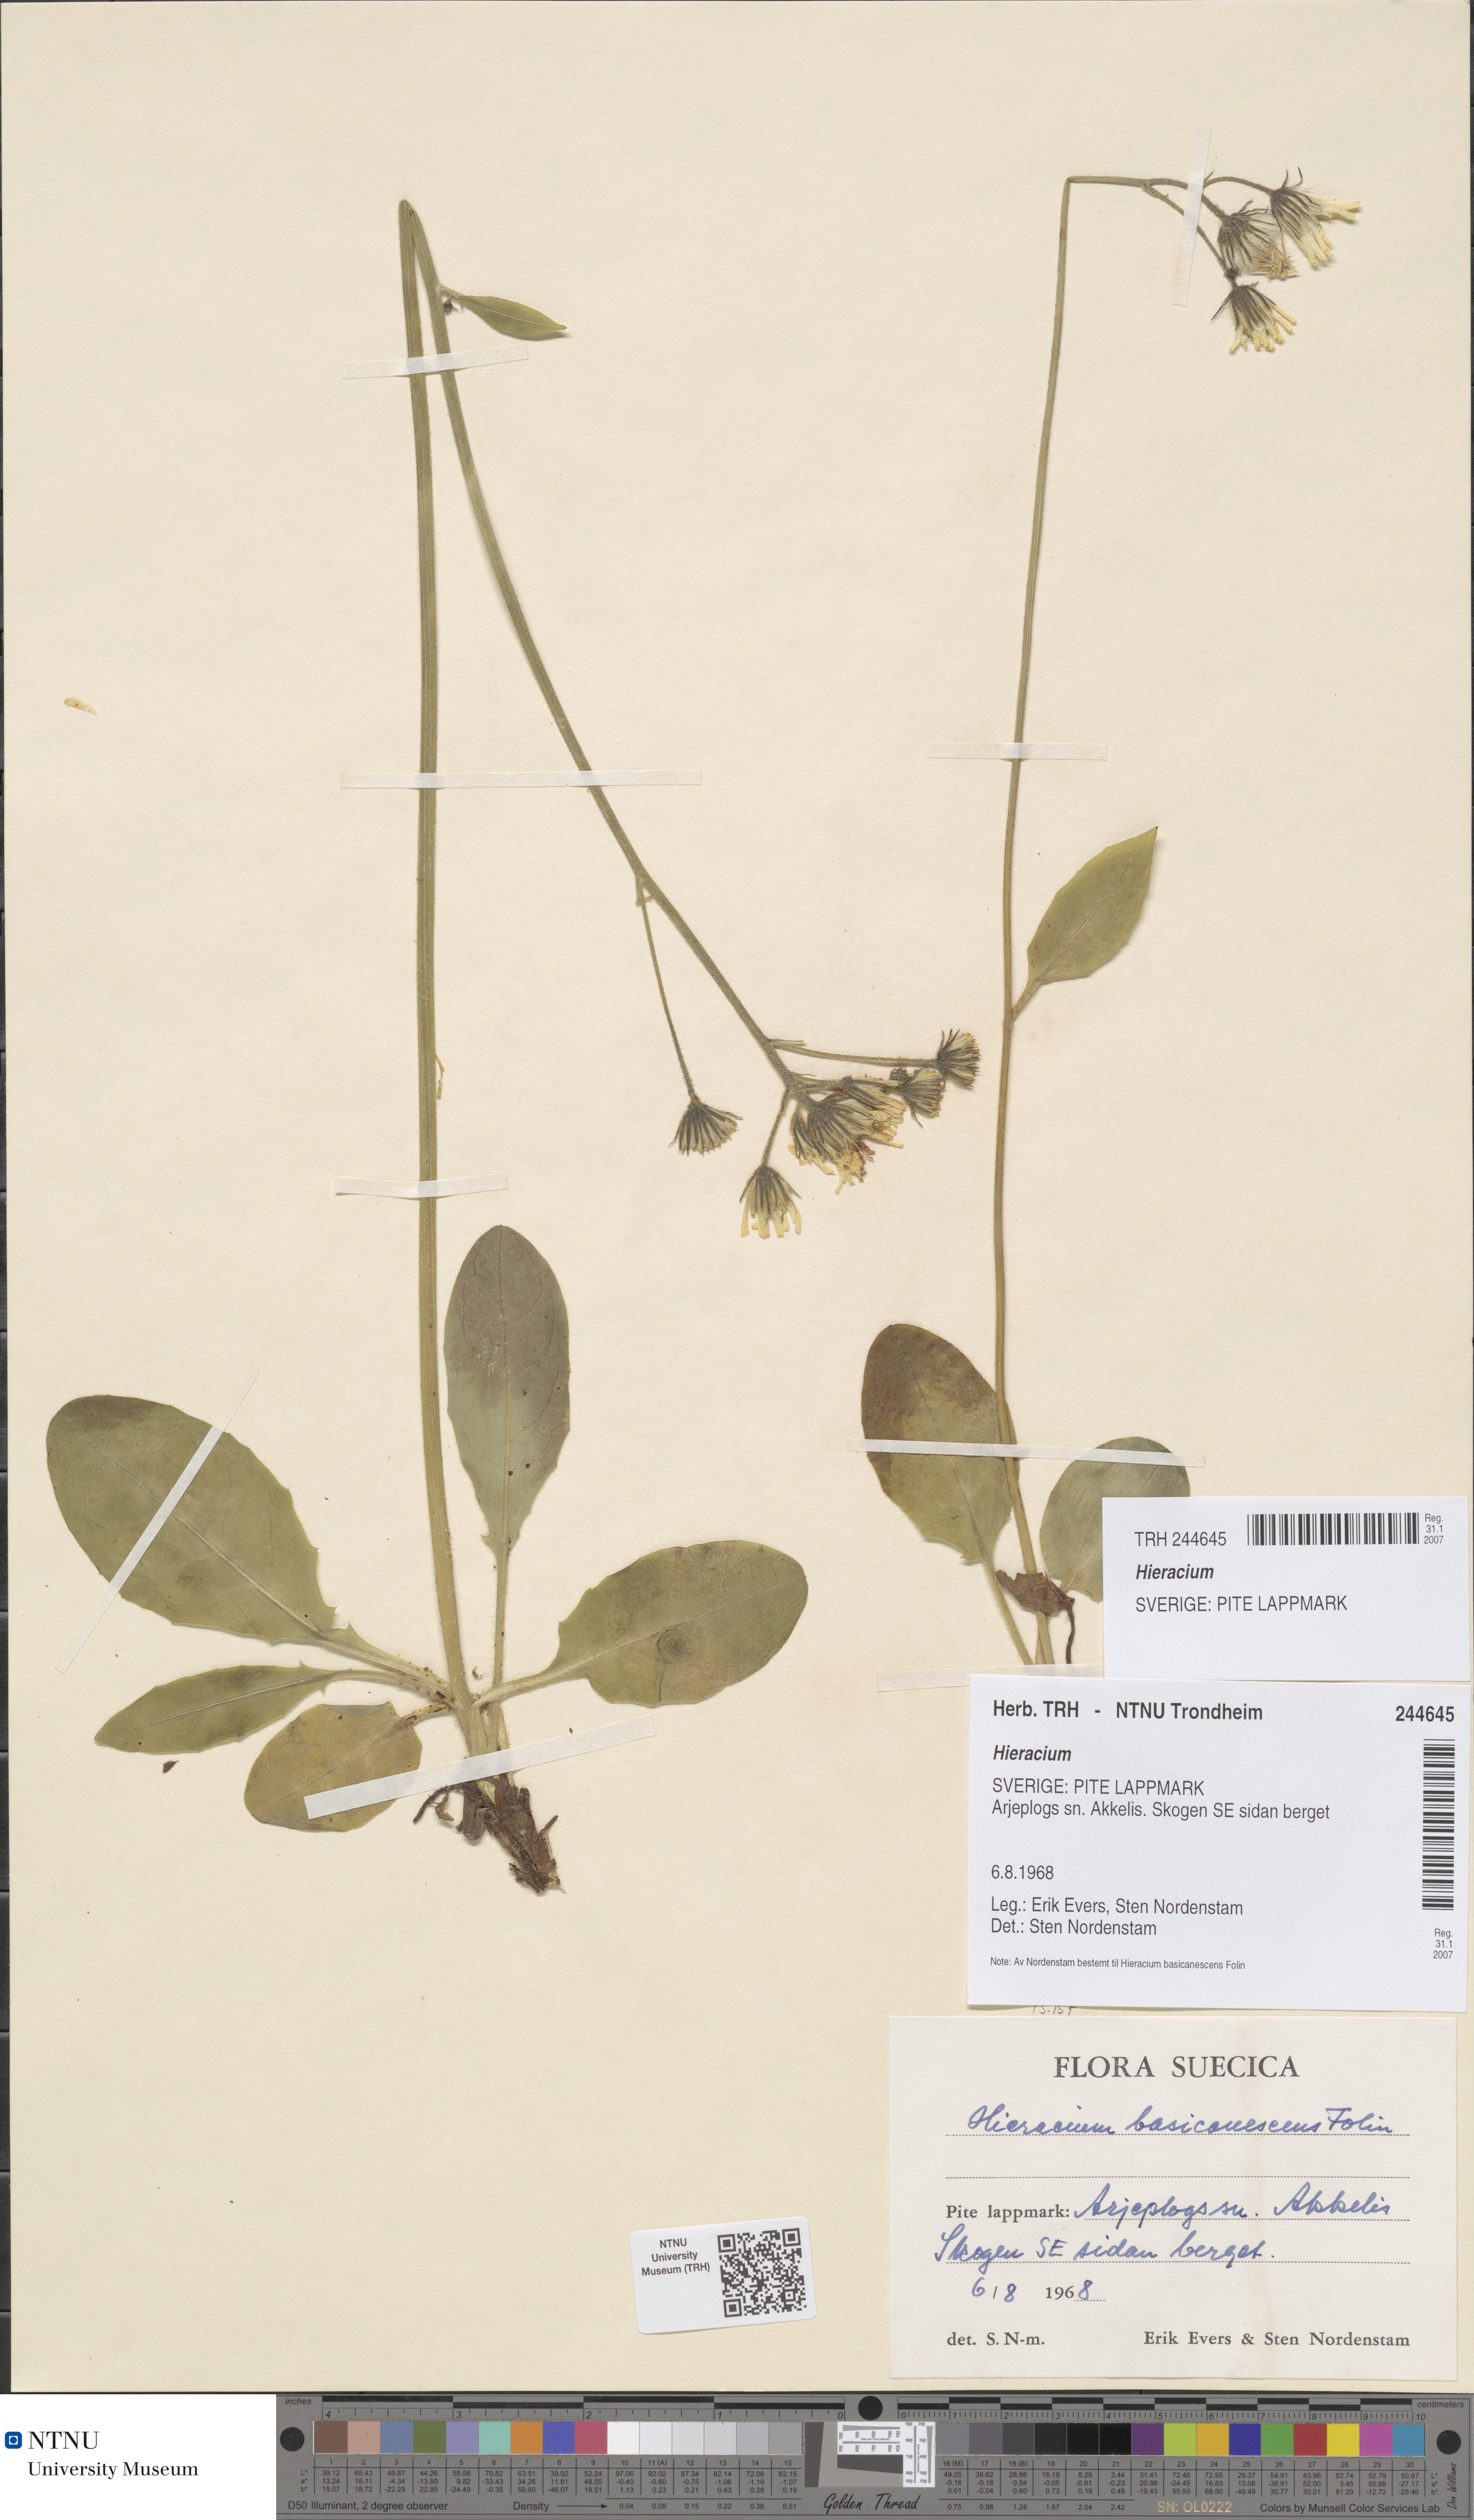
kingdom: Plantae
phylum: Tracheophyta
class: Magnoliopsida
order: Asterales
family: Asteraceae
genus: Hieracium
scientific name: Hieracium
